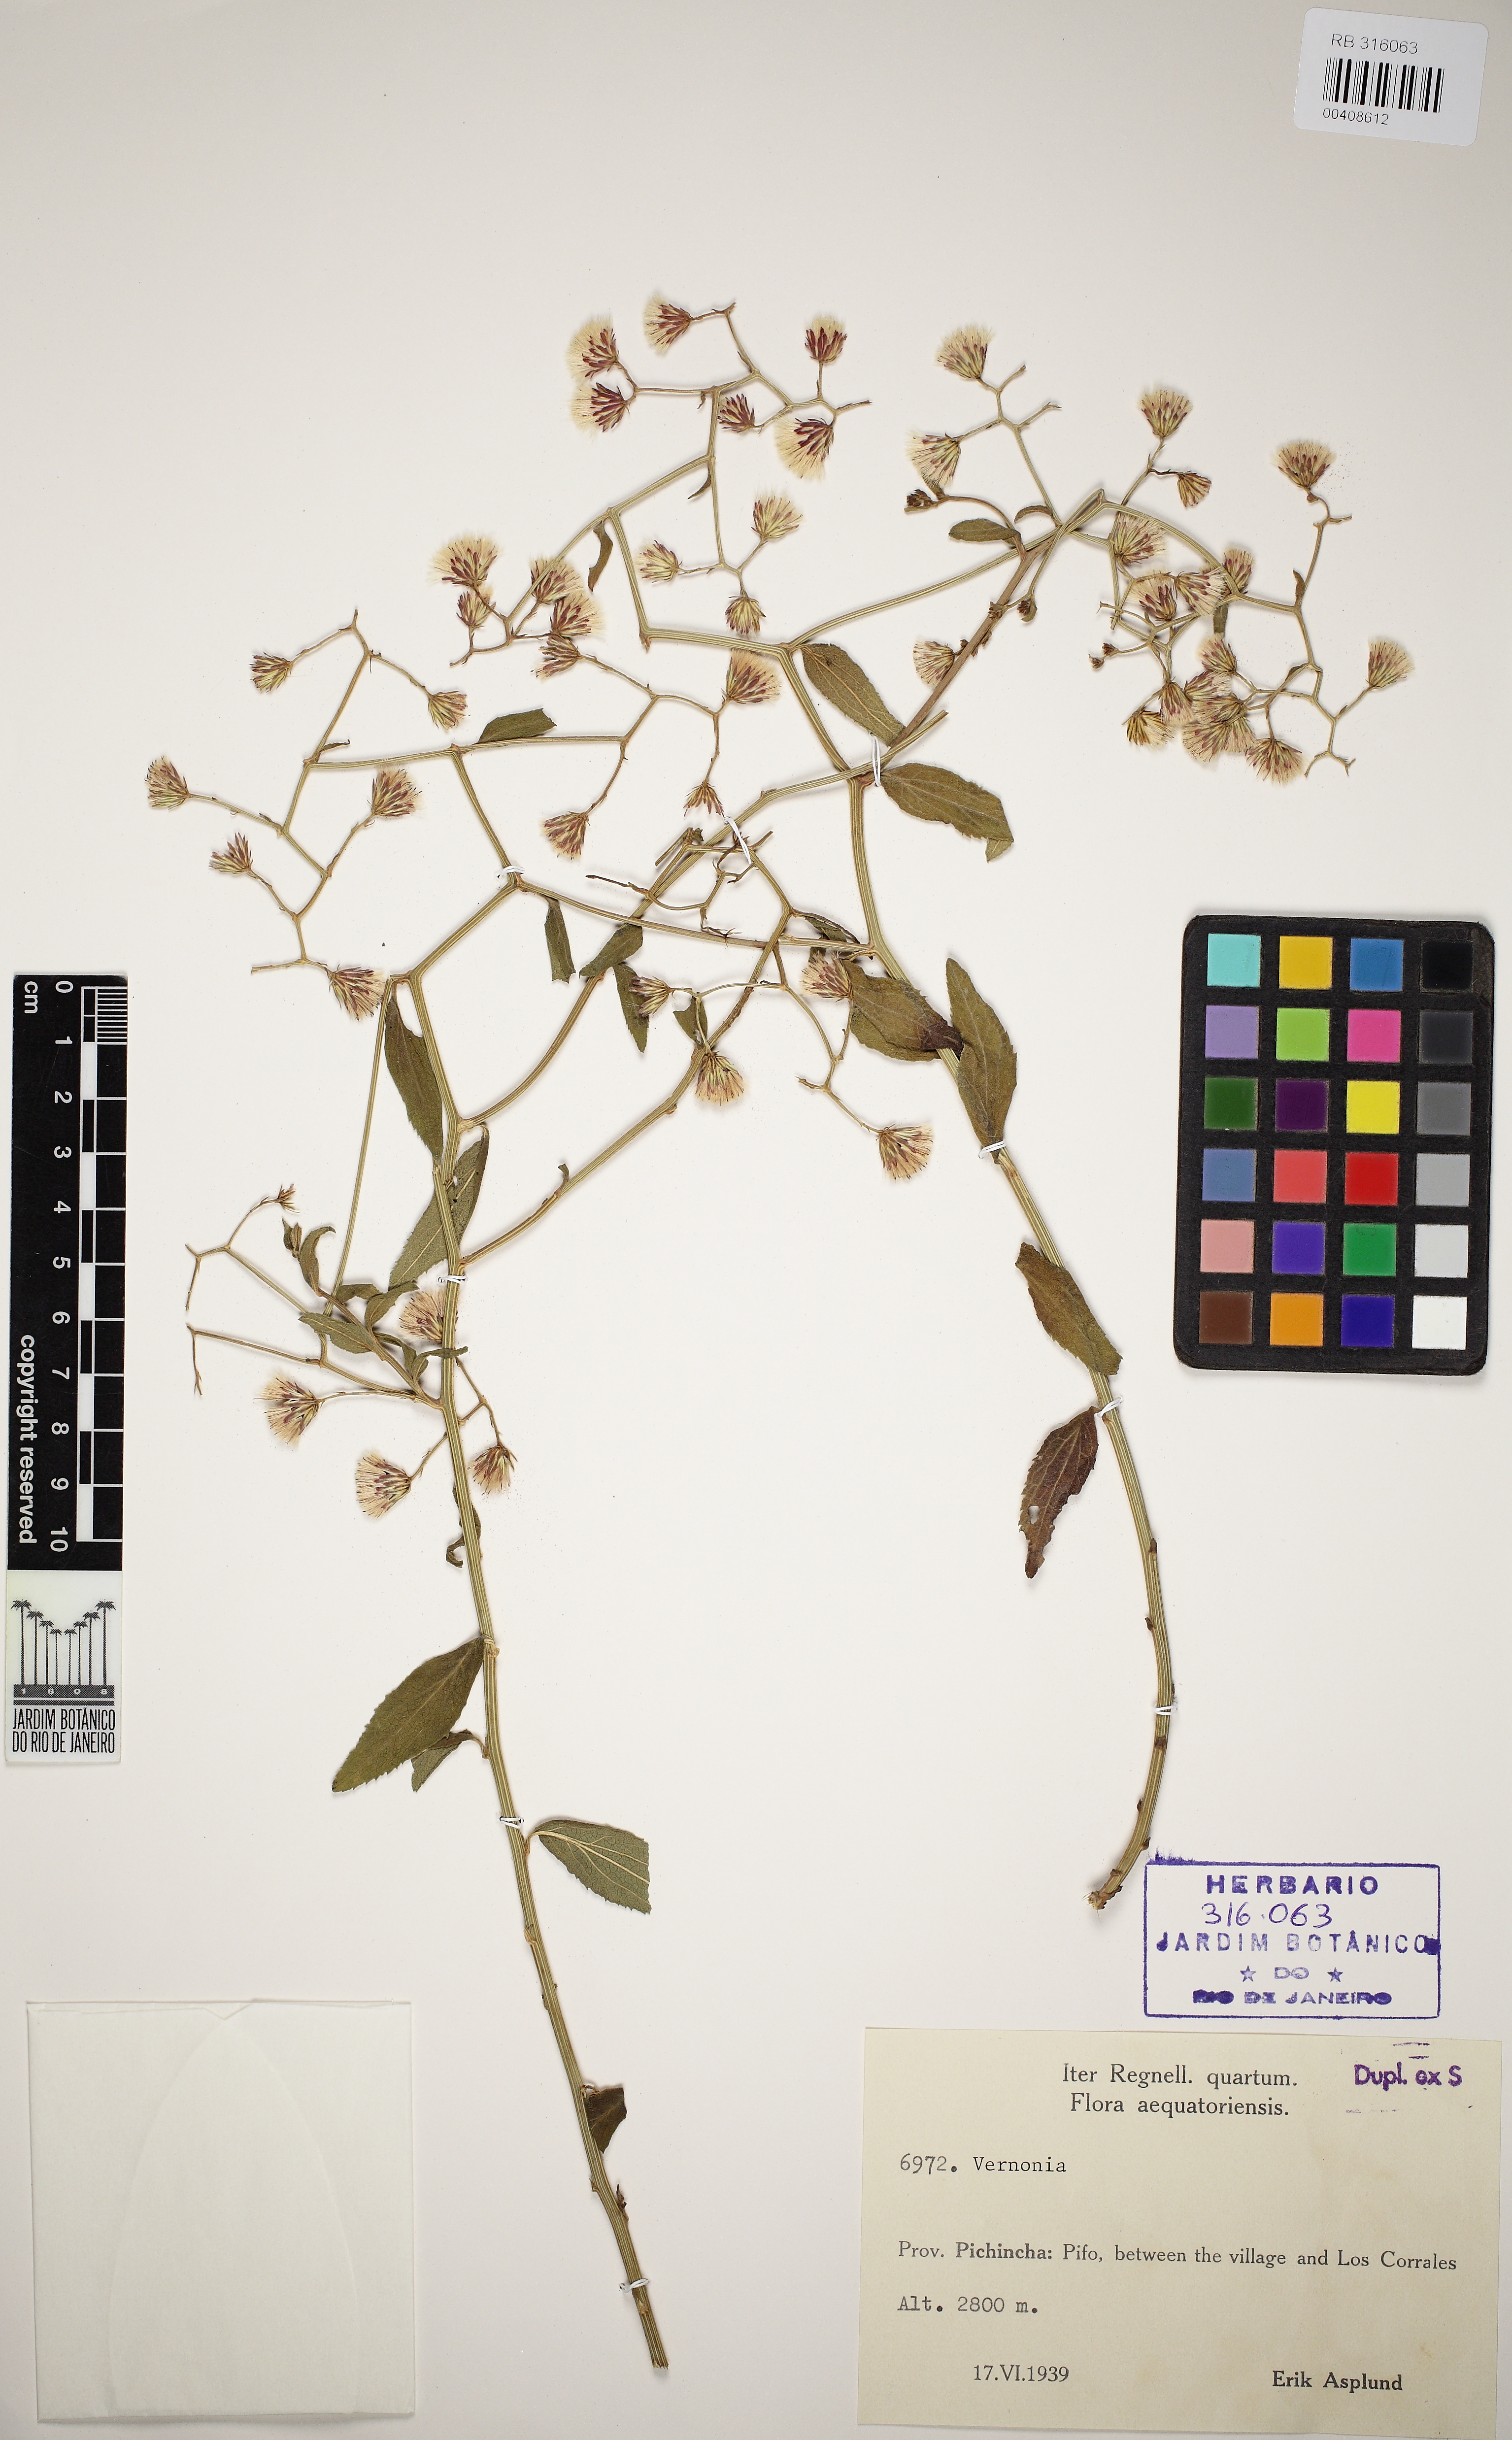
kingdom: Plantae
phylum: Tracheophyta
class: Magnoliopsida
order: Asterales
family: Asteraceae
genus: Vernonia
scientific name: Vernonia
